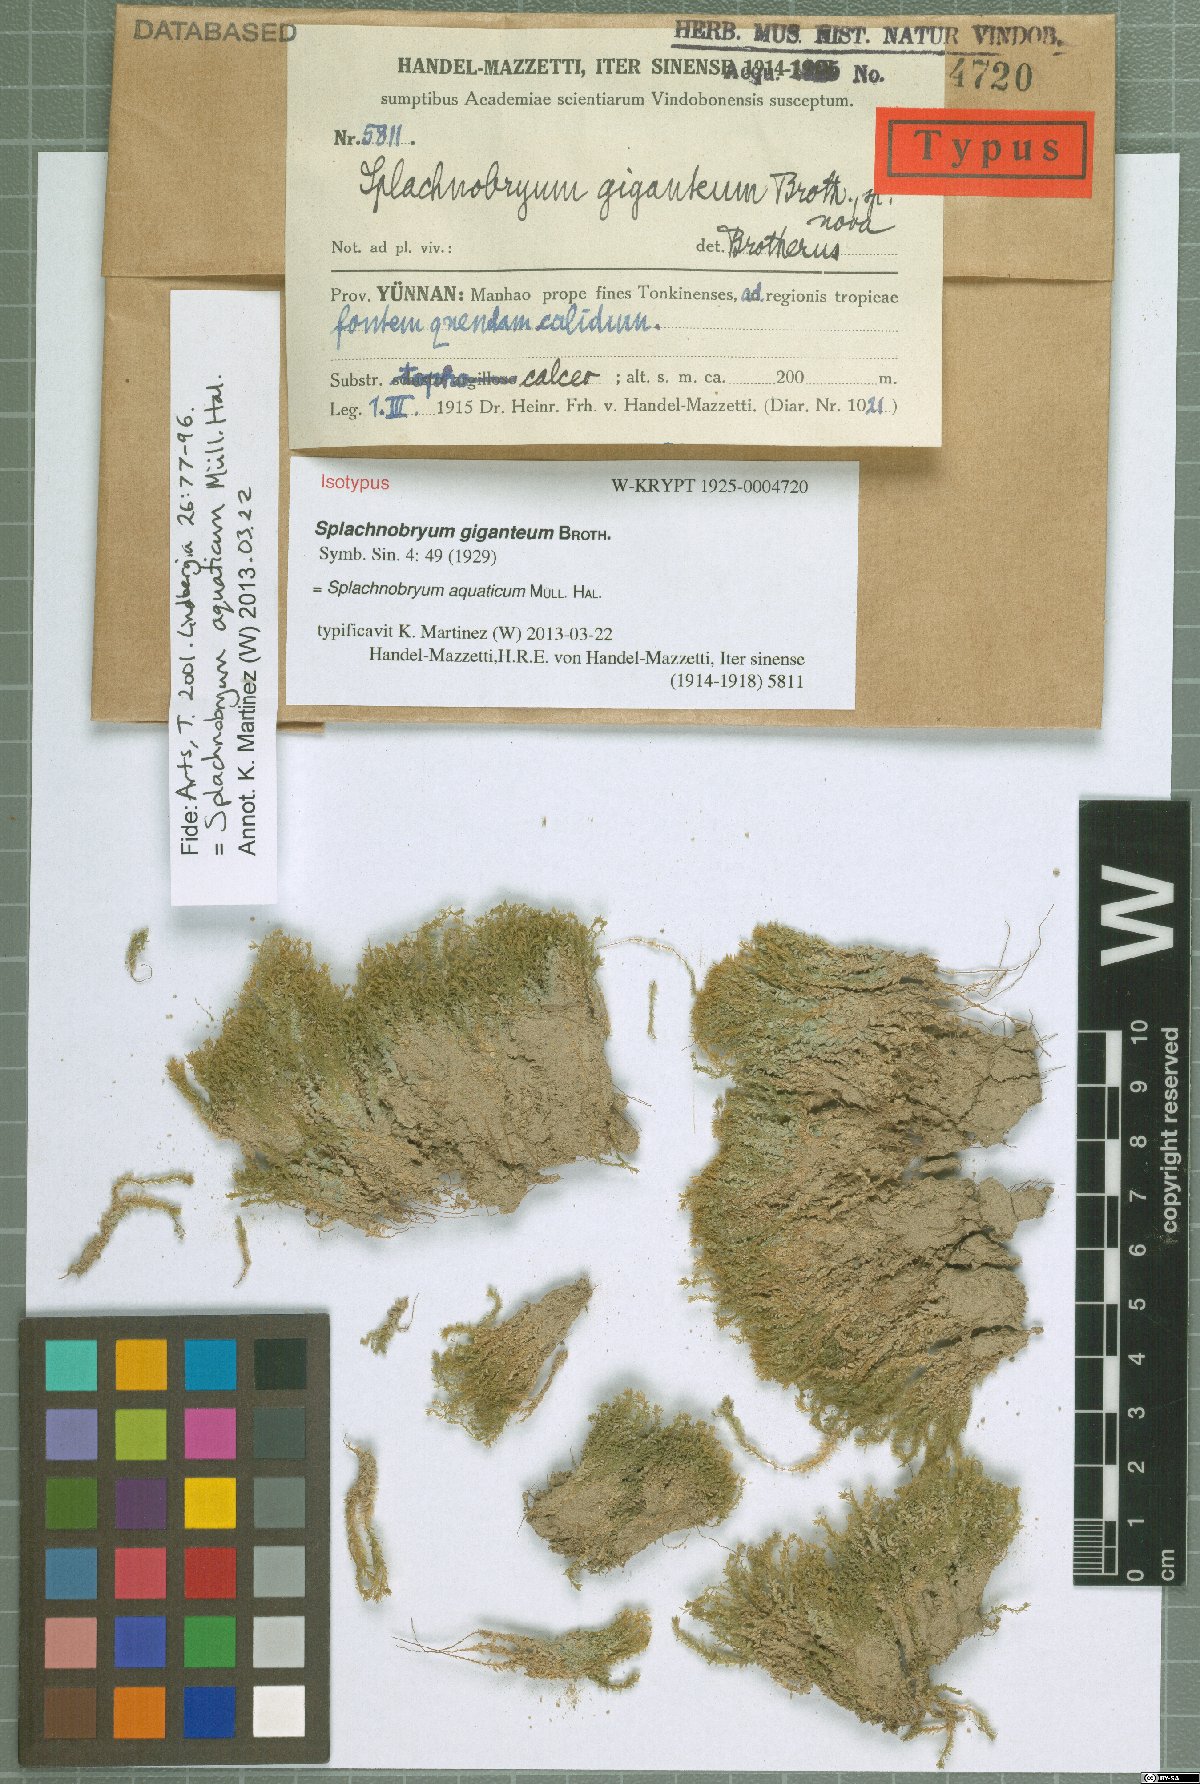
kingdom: Plantae
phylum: Bryophyta
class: Bryopsida
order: Pottiales
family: Splachnobryaceae
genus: Splachnobryum
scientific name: Splachnobryum aquaticum
